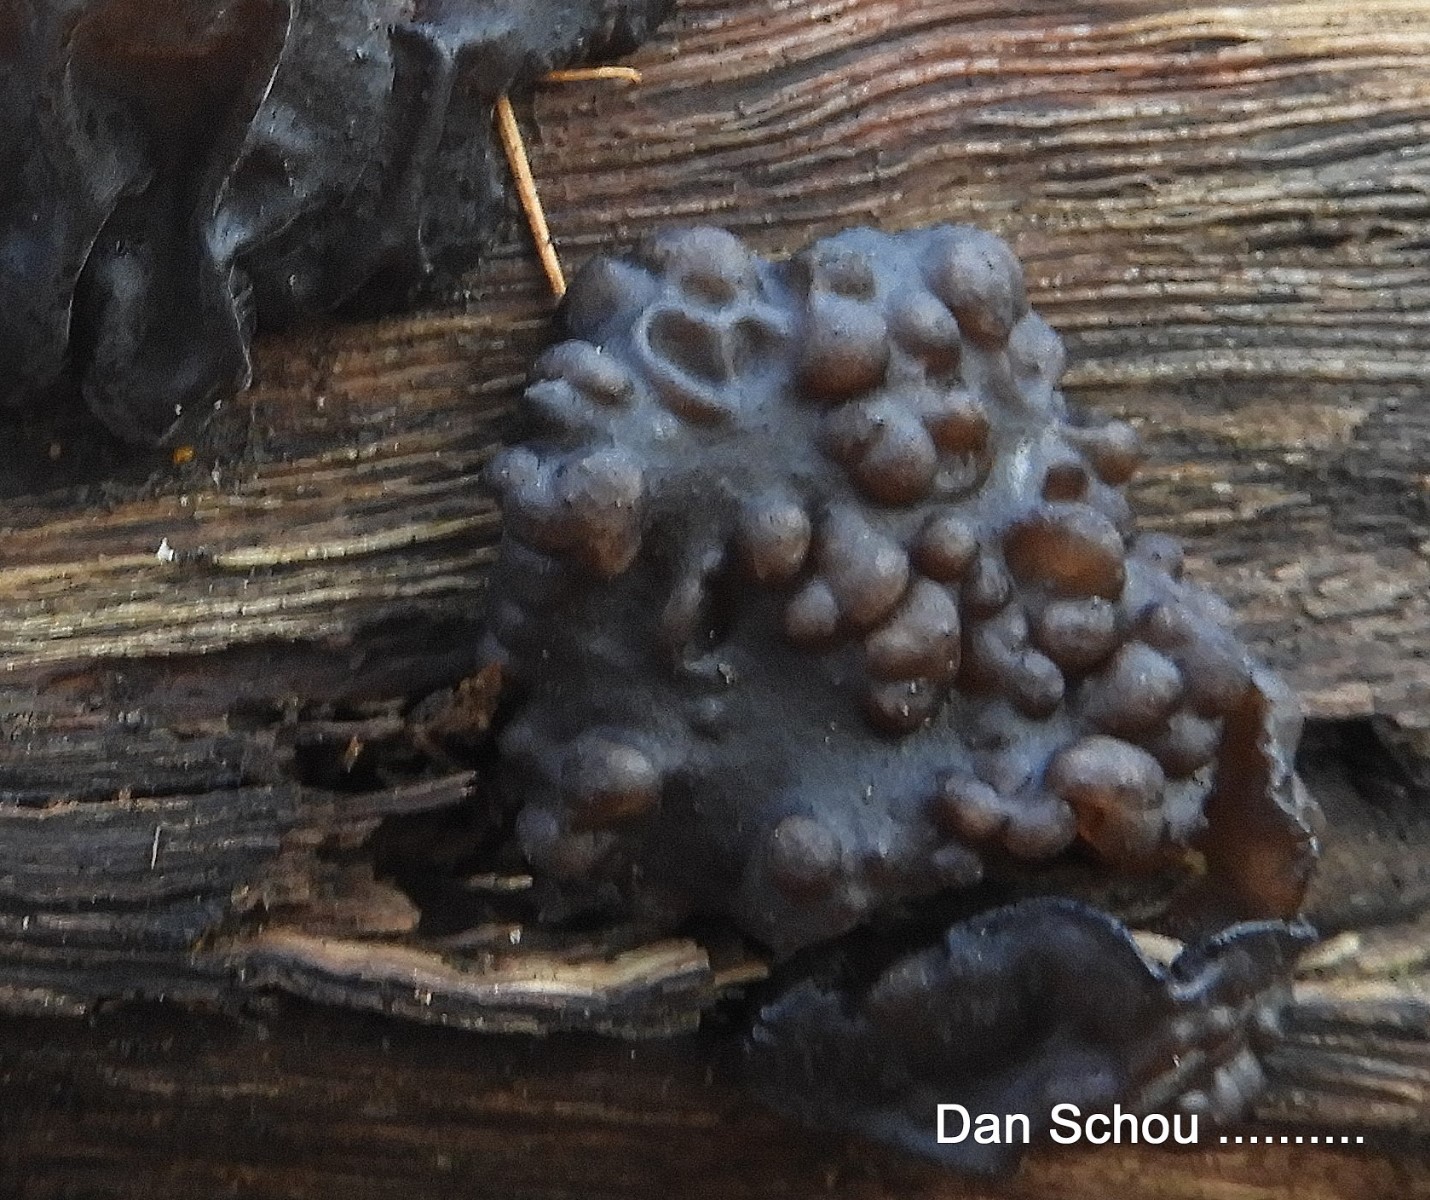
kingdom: Fungi
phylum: Basidiomycota
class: Tremellomycetes
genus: Heteromycophaga
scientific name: Heteromycophaga glandulosae
